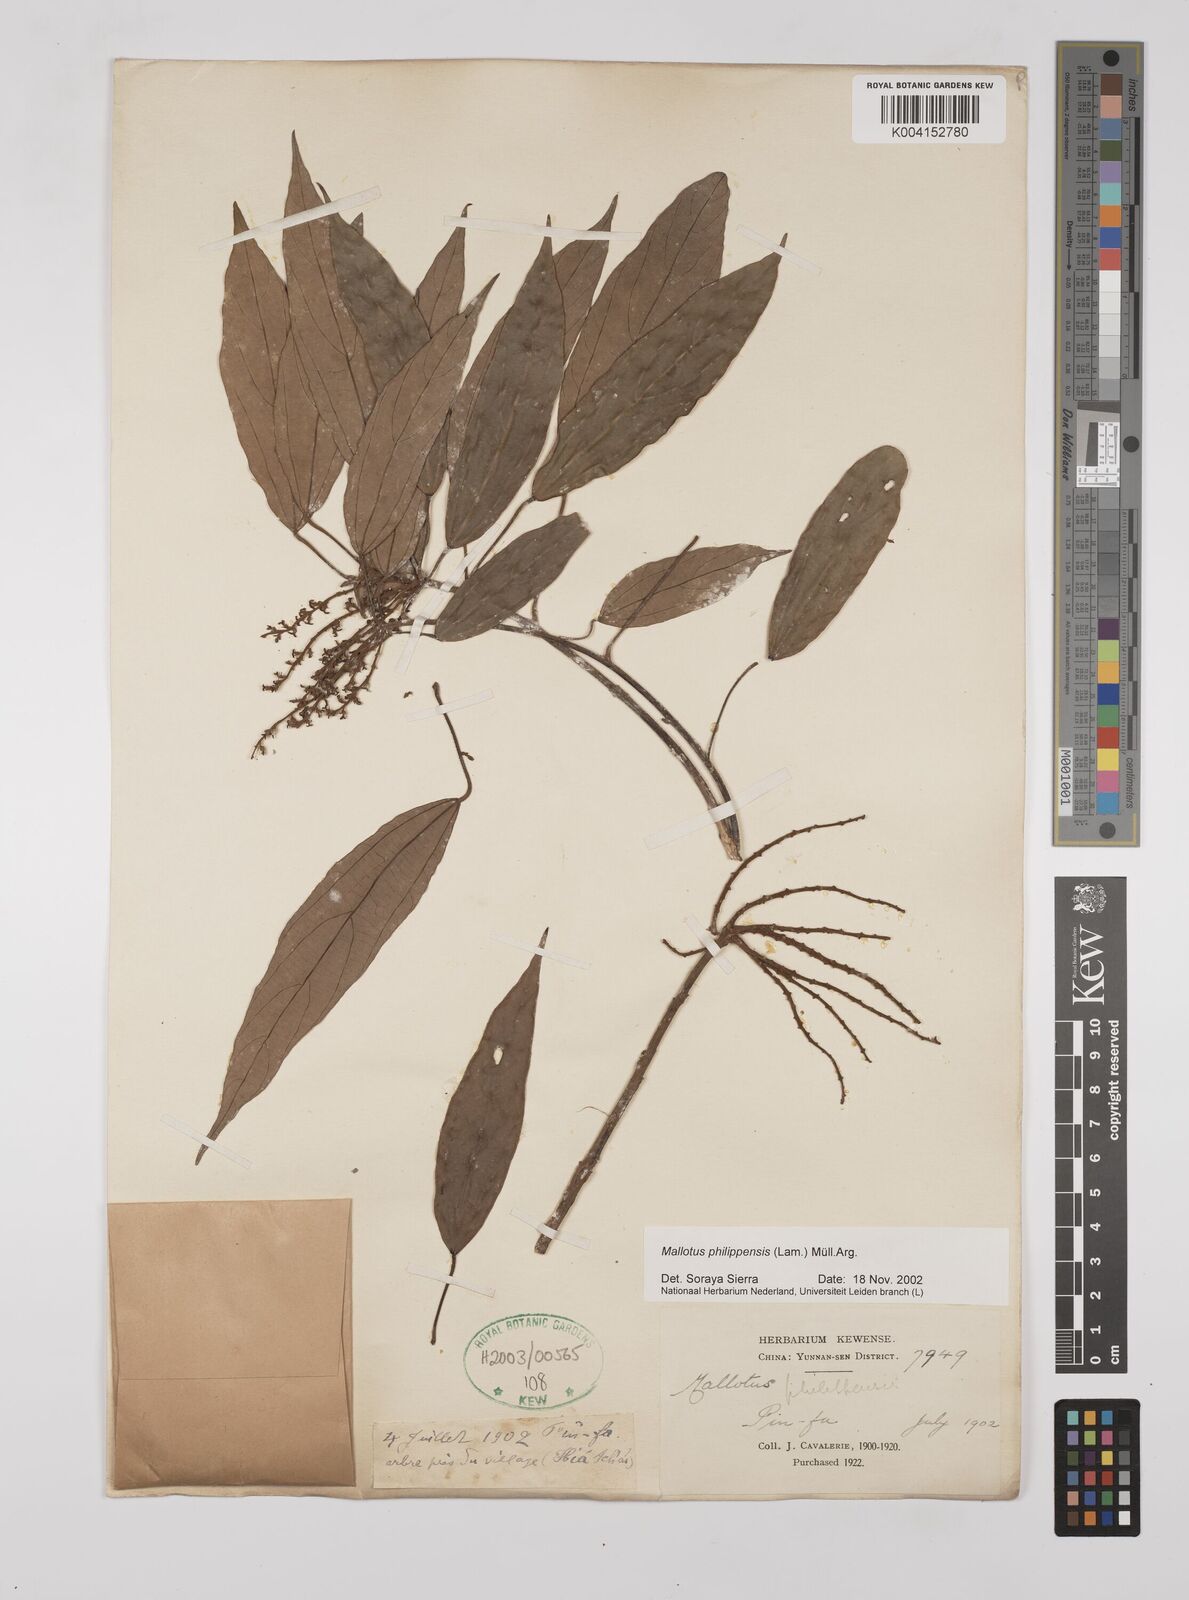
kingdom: Plantae
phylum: Tracheophyta
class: Magnoliopsida
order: Malpighiales
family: Euphorbiaceae
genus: Mallotus
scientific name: Mallotus philippensis
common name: Kamala tree
